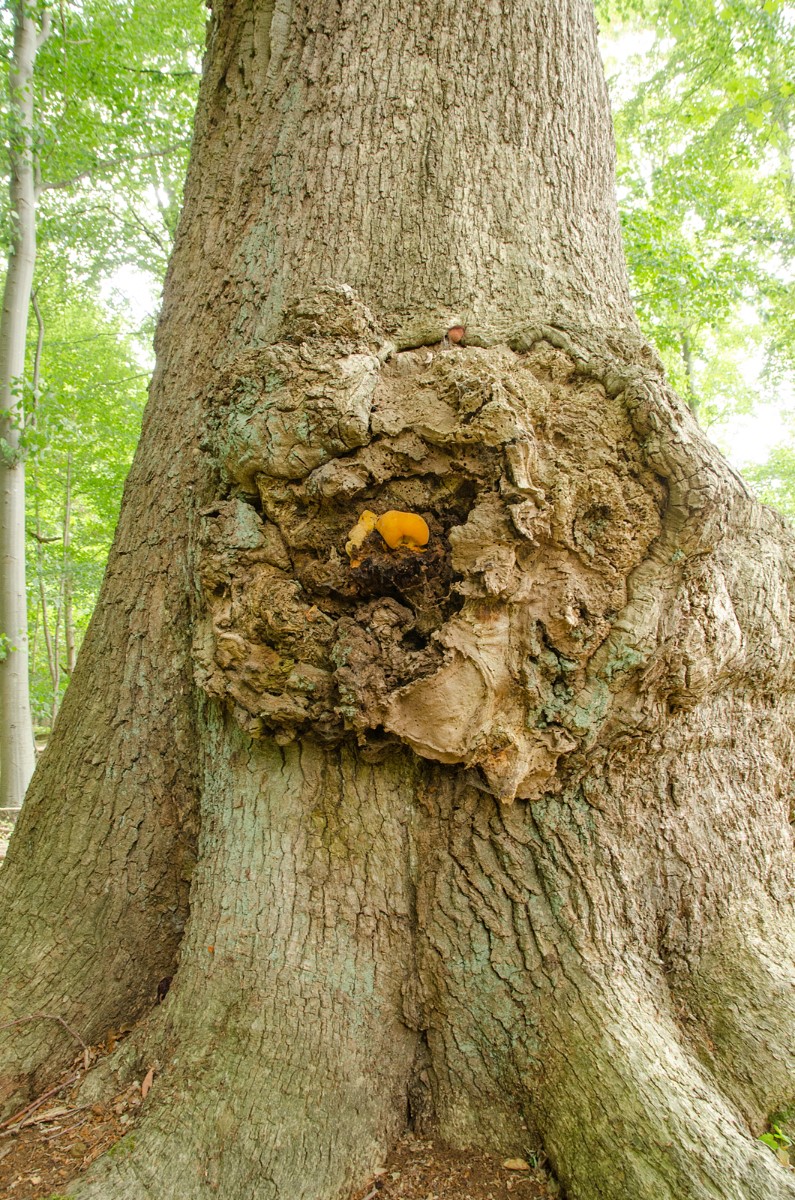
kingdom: Fungi
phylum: Basidiomycota
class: Agaricomycetes
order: Polyporales
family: Phanerochaetaceae
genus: Hapalopilus
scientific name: Hapalopilus croceus
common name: safrangul pragtporesvamp
